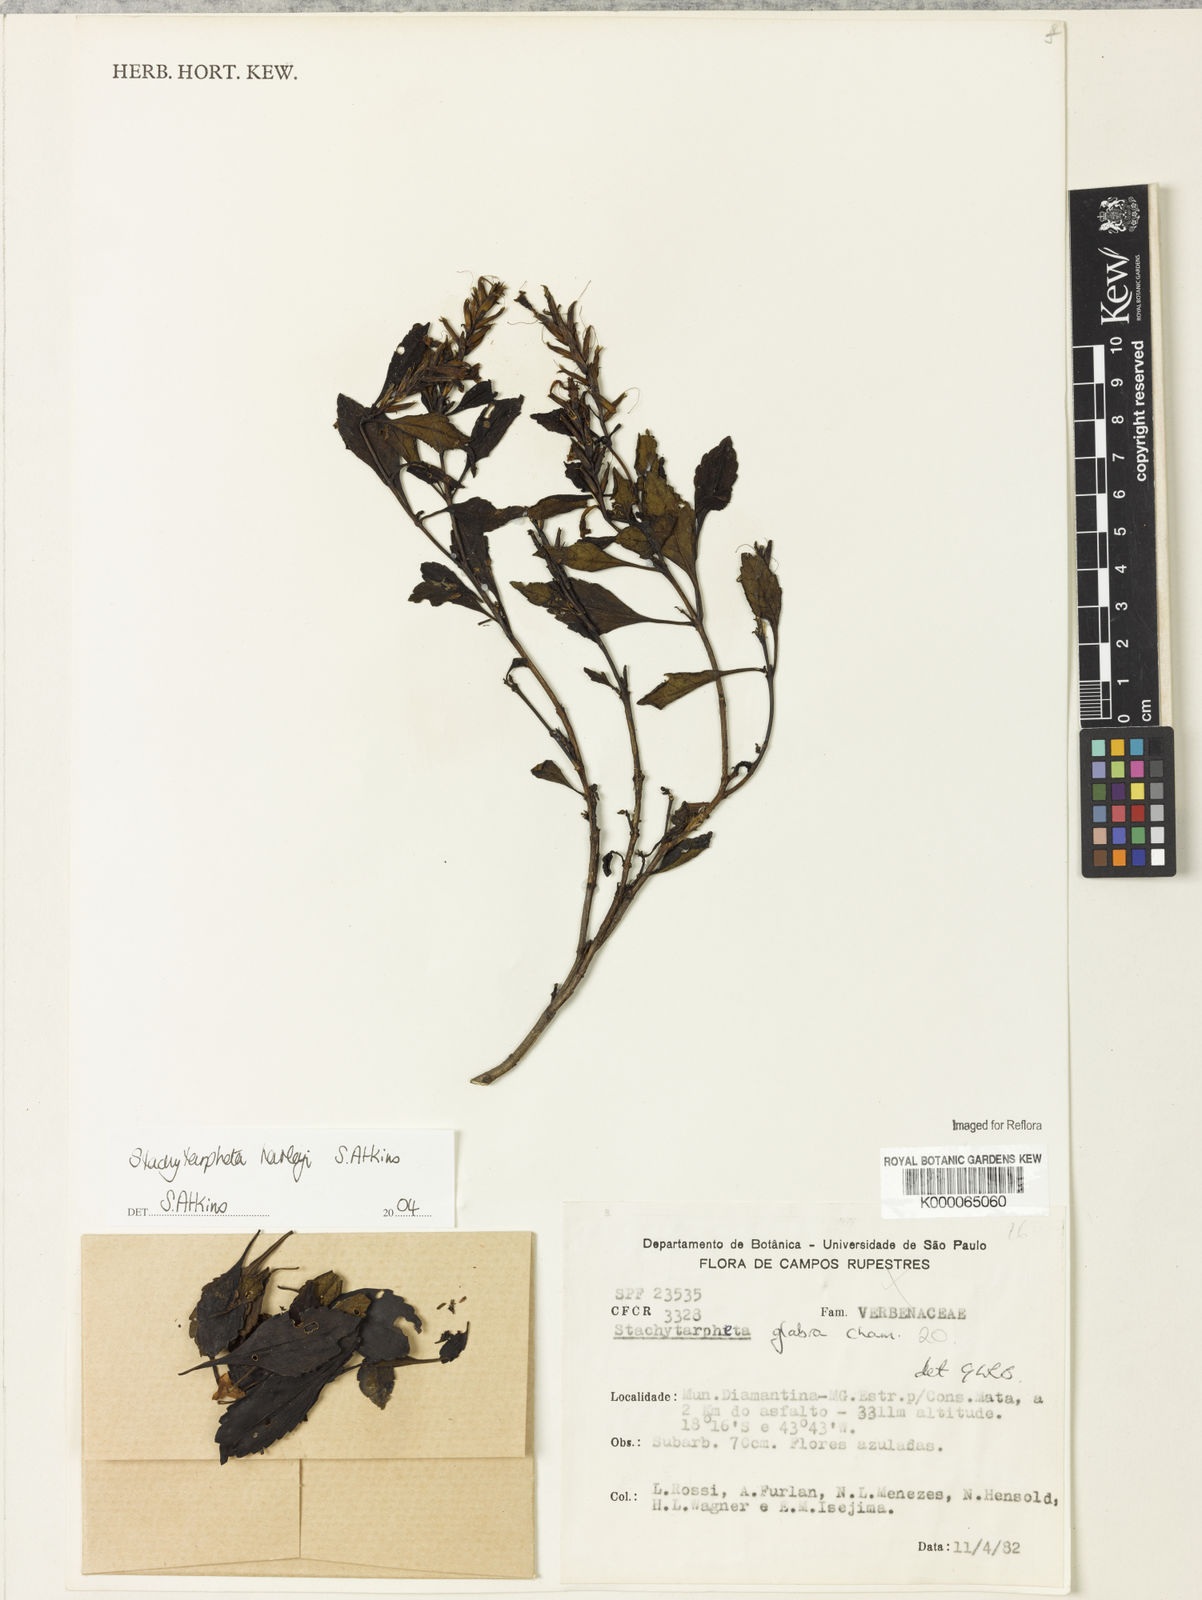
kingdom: Plantae
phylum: Tracheophyta
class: Magnoliopsida
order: Lamiales
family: Verbenaceae
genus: Stachytarpheta
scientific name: Stachytarpheta glabra
